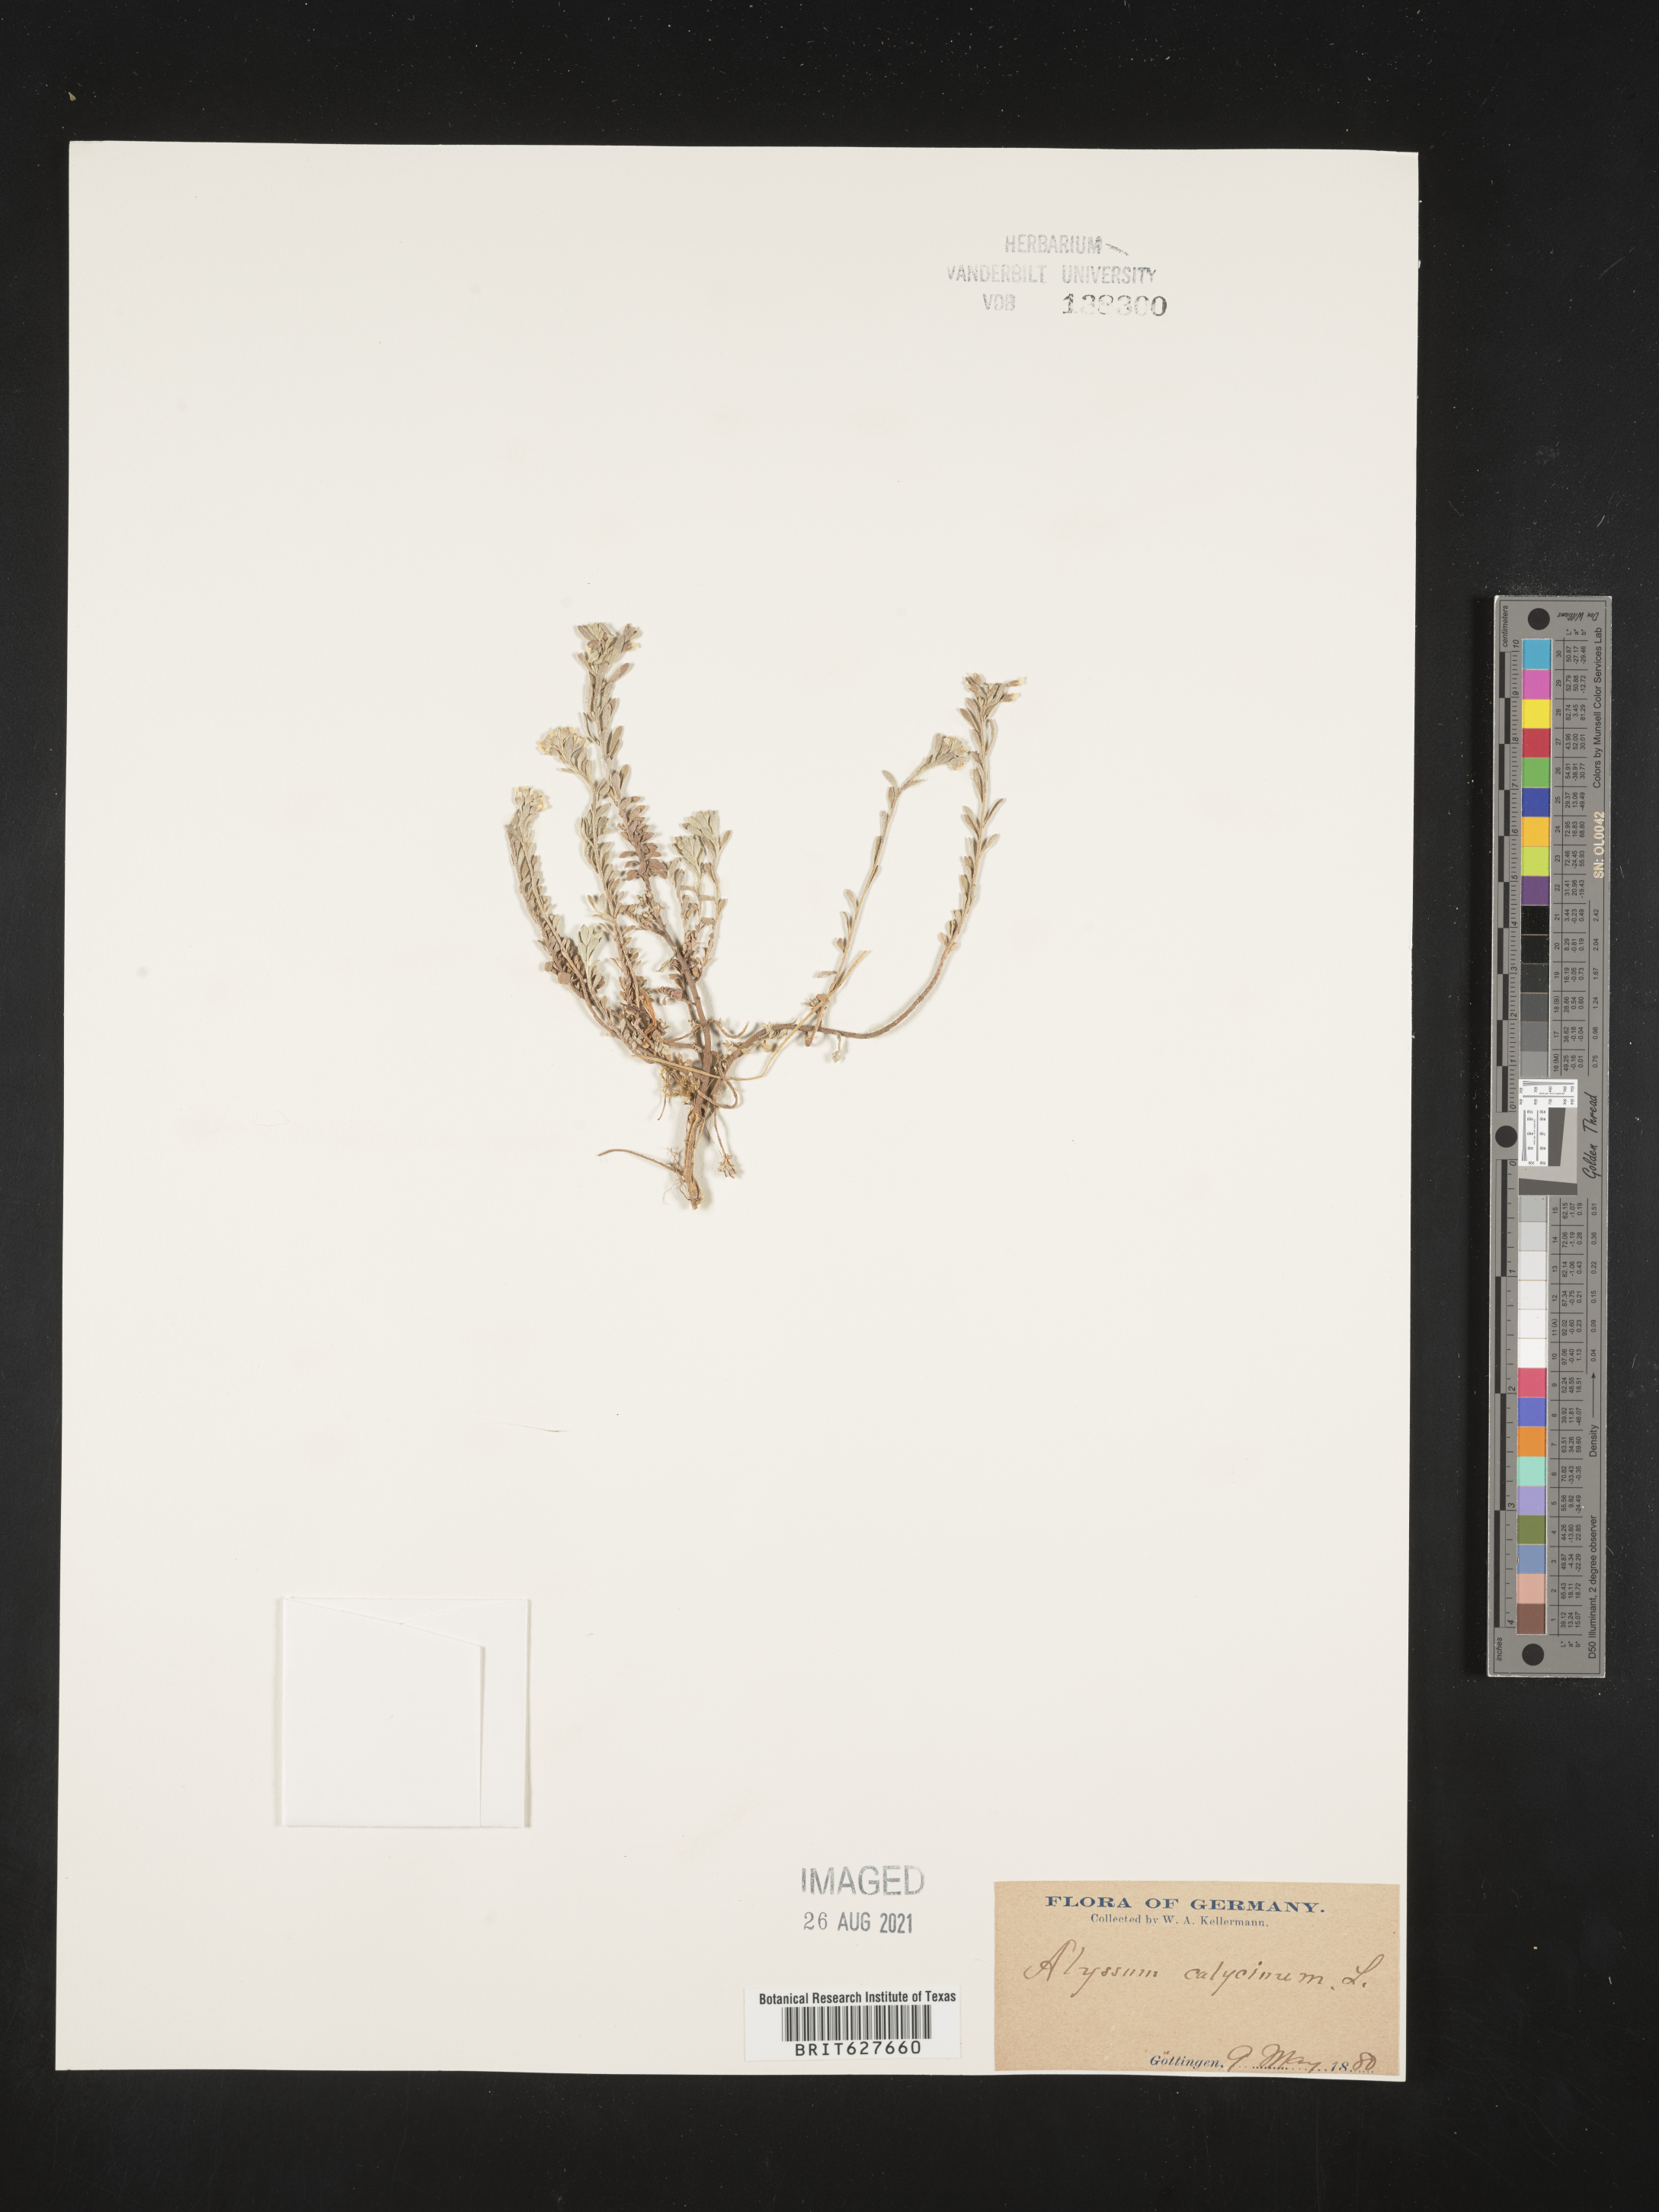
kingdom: Plantae
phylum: Tracheophyta
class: Magnoliopsida
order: Brassicales
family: Brassicaceae
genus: Alyssum
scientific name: Alyssum alyssoides
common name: Small alison
